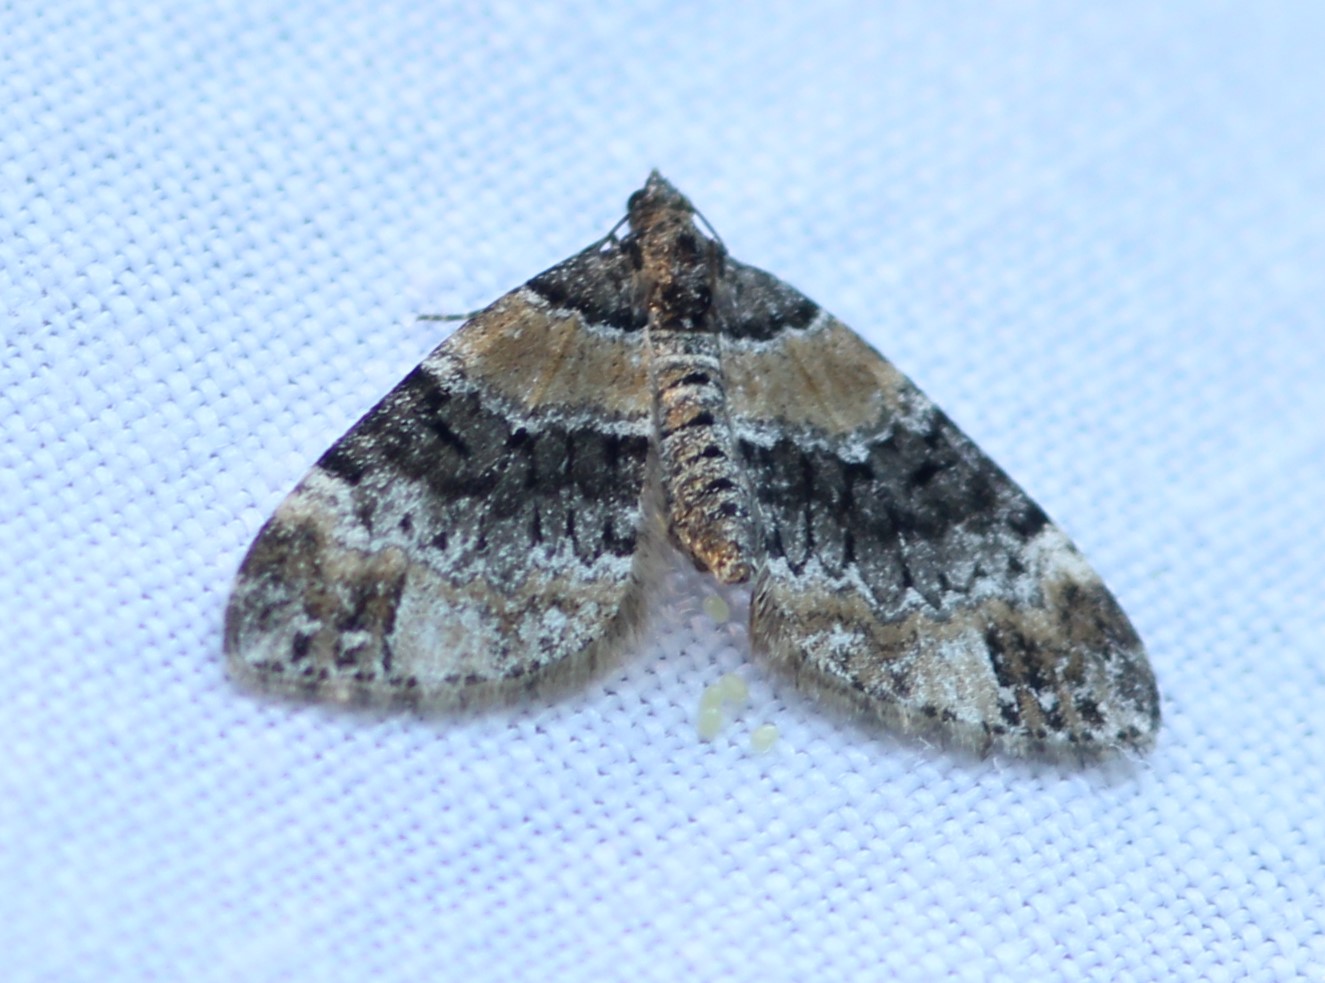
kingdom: Animalia
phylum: Arthropoda
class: Insecta
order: Lepidoptera
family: Geometridae
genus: Perizoma
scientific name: Perizoma taeniata
